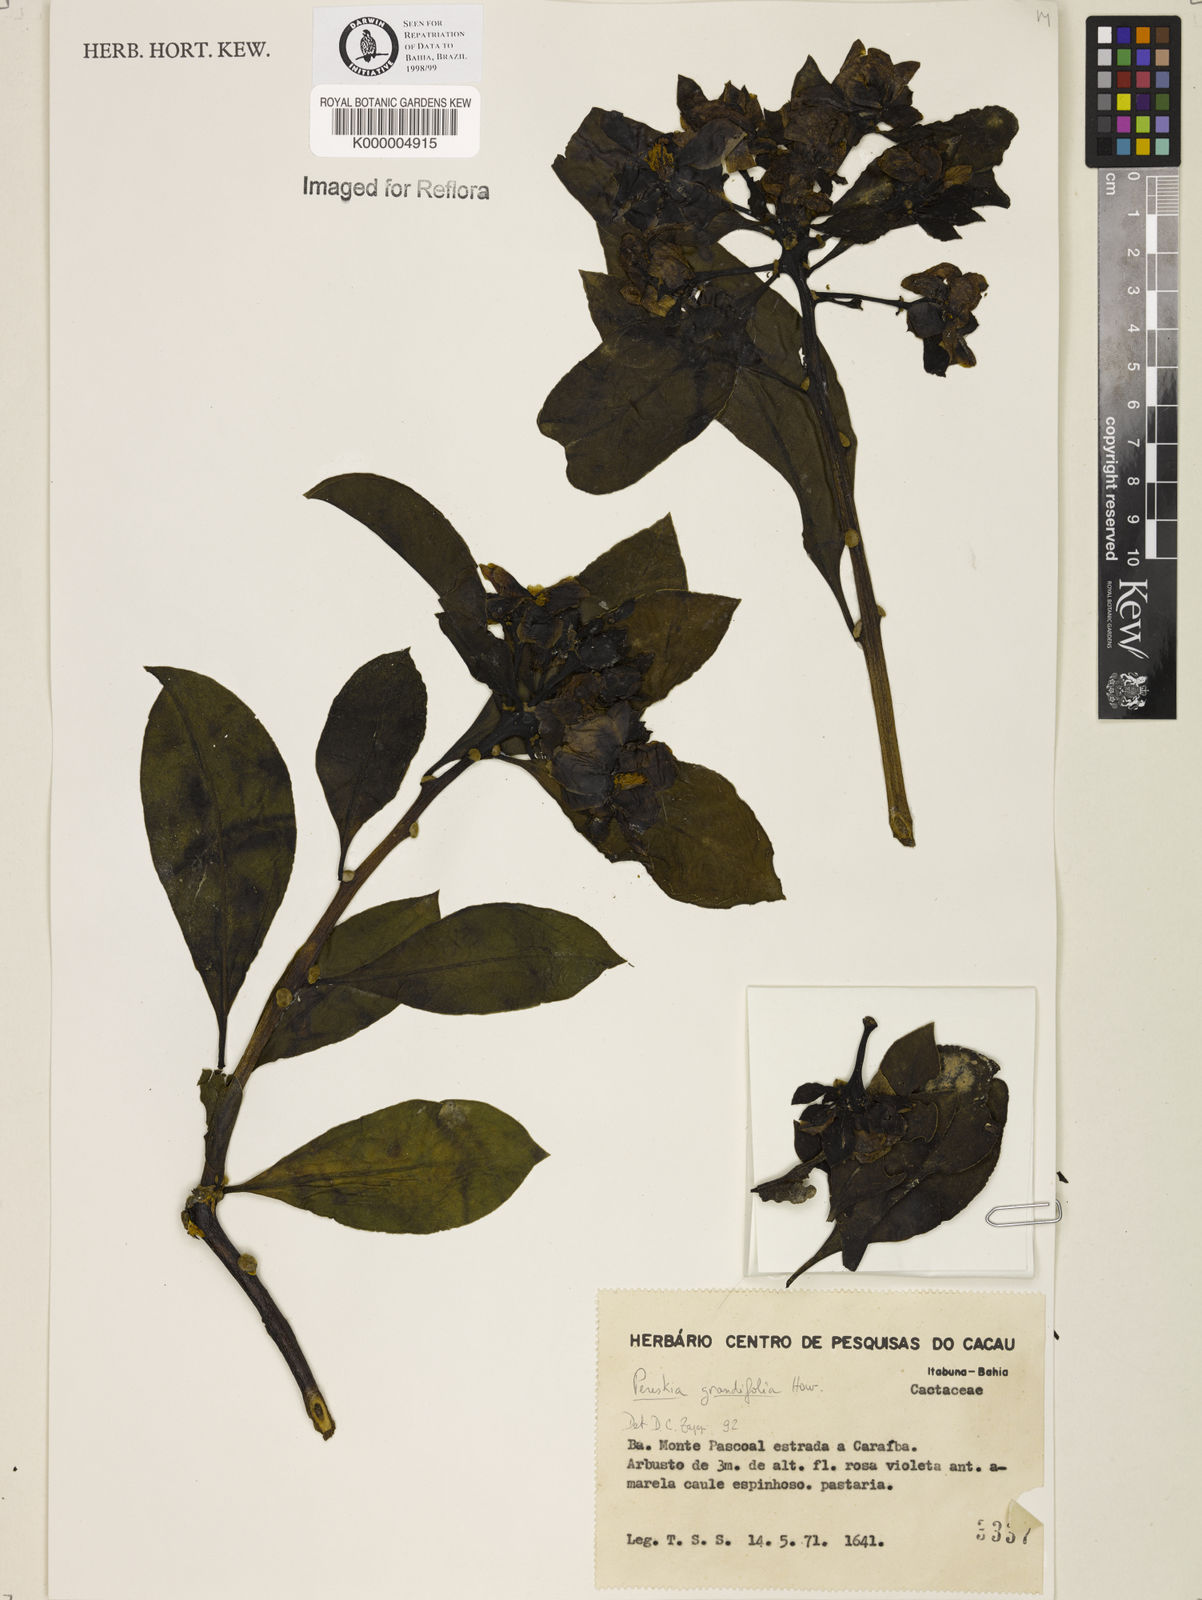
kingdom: Plantae
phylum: Tracheophyta
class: Magnoliopsida
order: Caryophyllales
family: Cactaceae
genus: Pereskia
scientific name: Pereskia grandifolia
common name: Rose cactus
